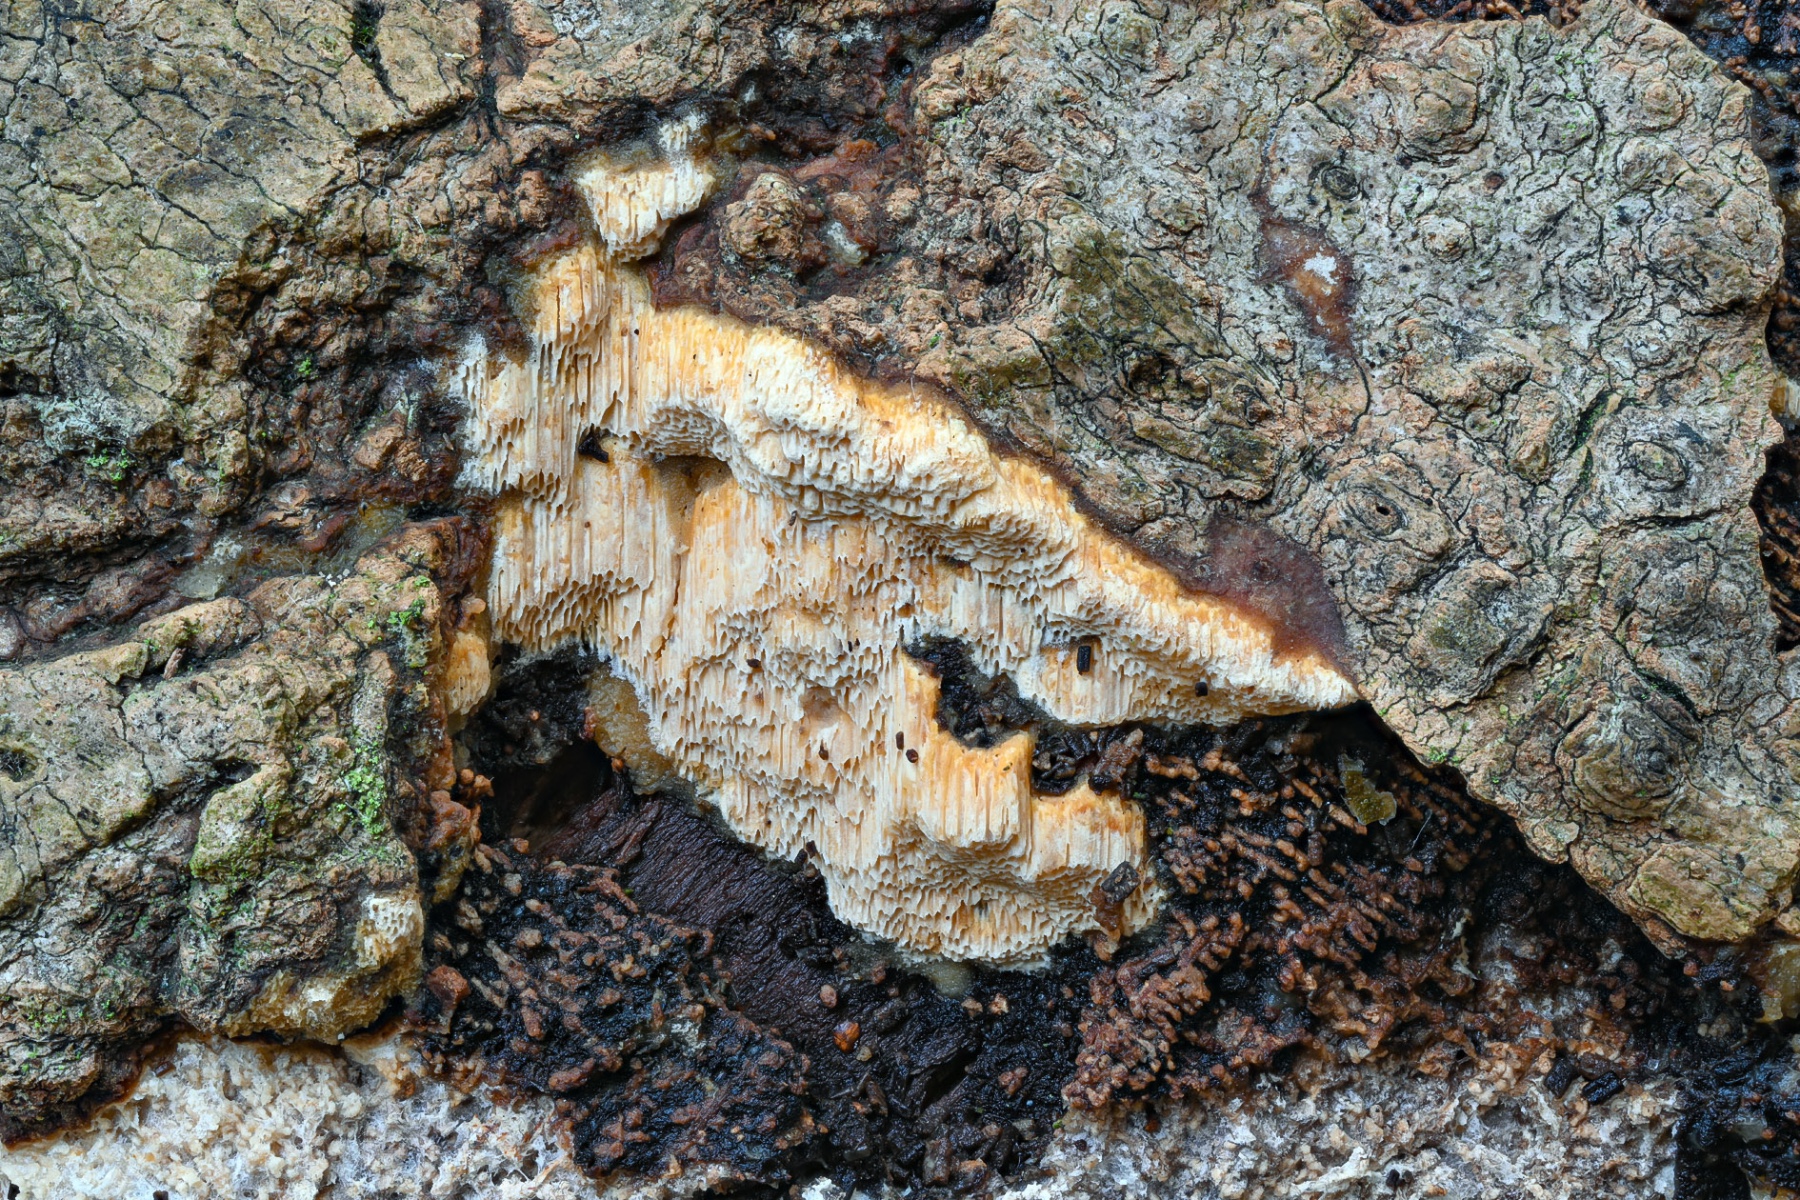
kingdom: Fungi
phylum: Basidiomycota
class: Agaricomycetes
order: Hymenochaetales
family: Schizoporaceae
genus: Xylodon
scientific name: Xylodon subtropicus
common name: labyrint-tandsvamp
